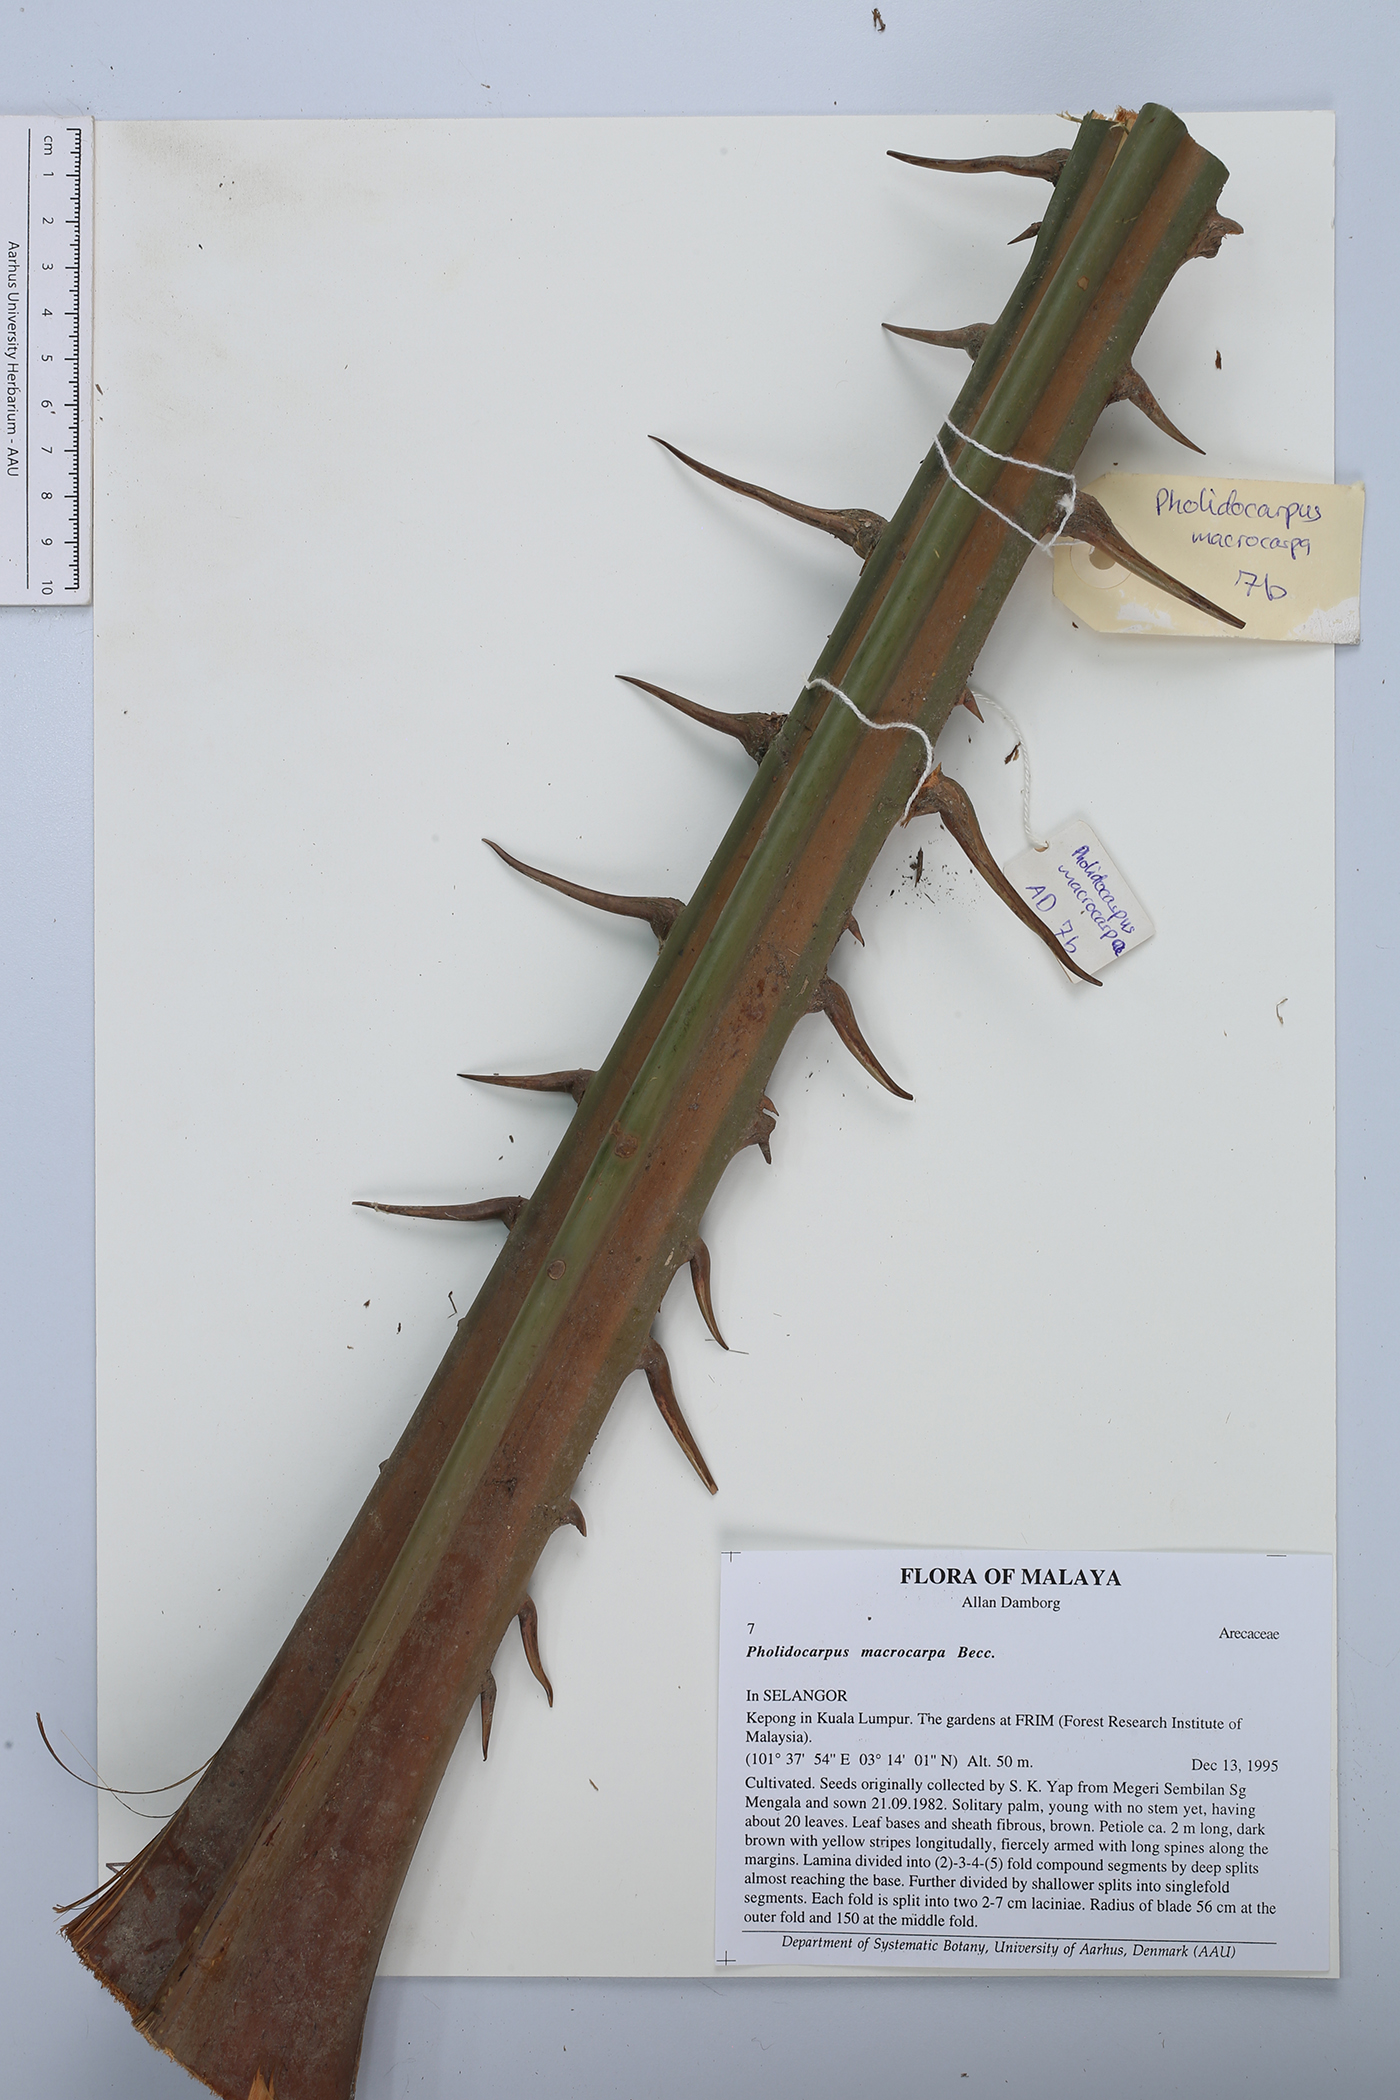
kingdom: Plantae
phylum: Tracheophyta
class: Liliopsida
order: Arecales
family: Arecaceae
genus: Pholidocarpus
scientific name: Pholidocarpus macrocarpus
